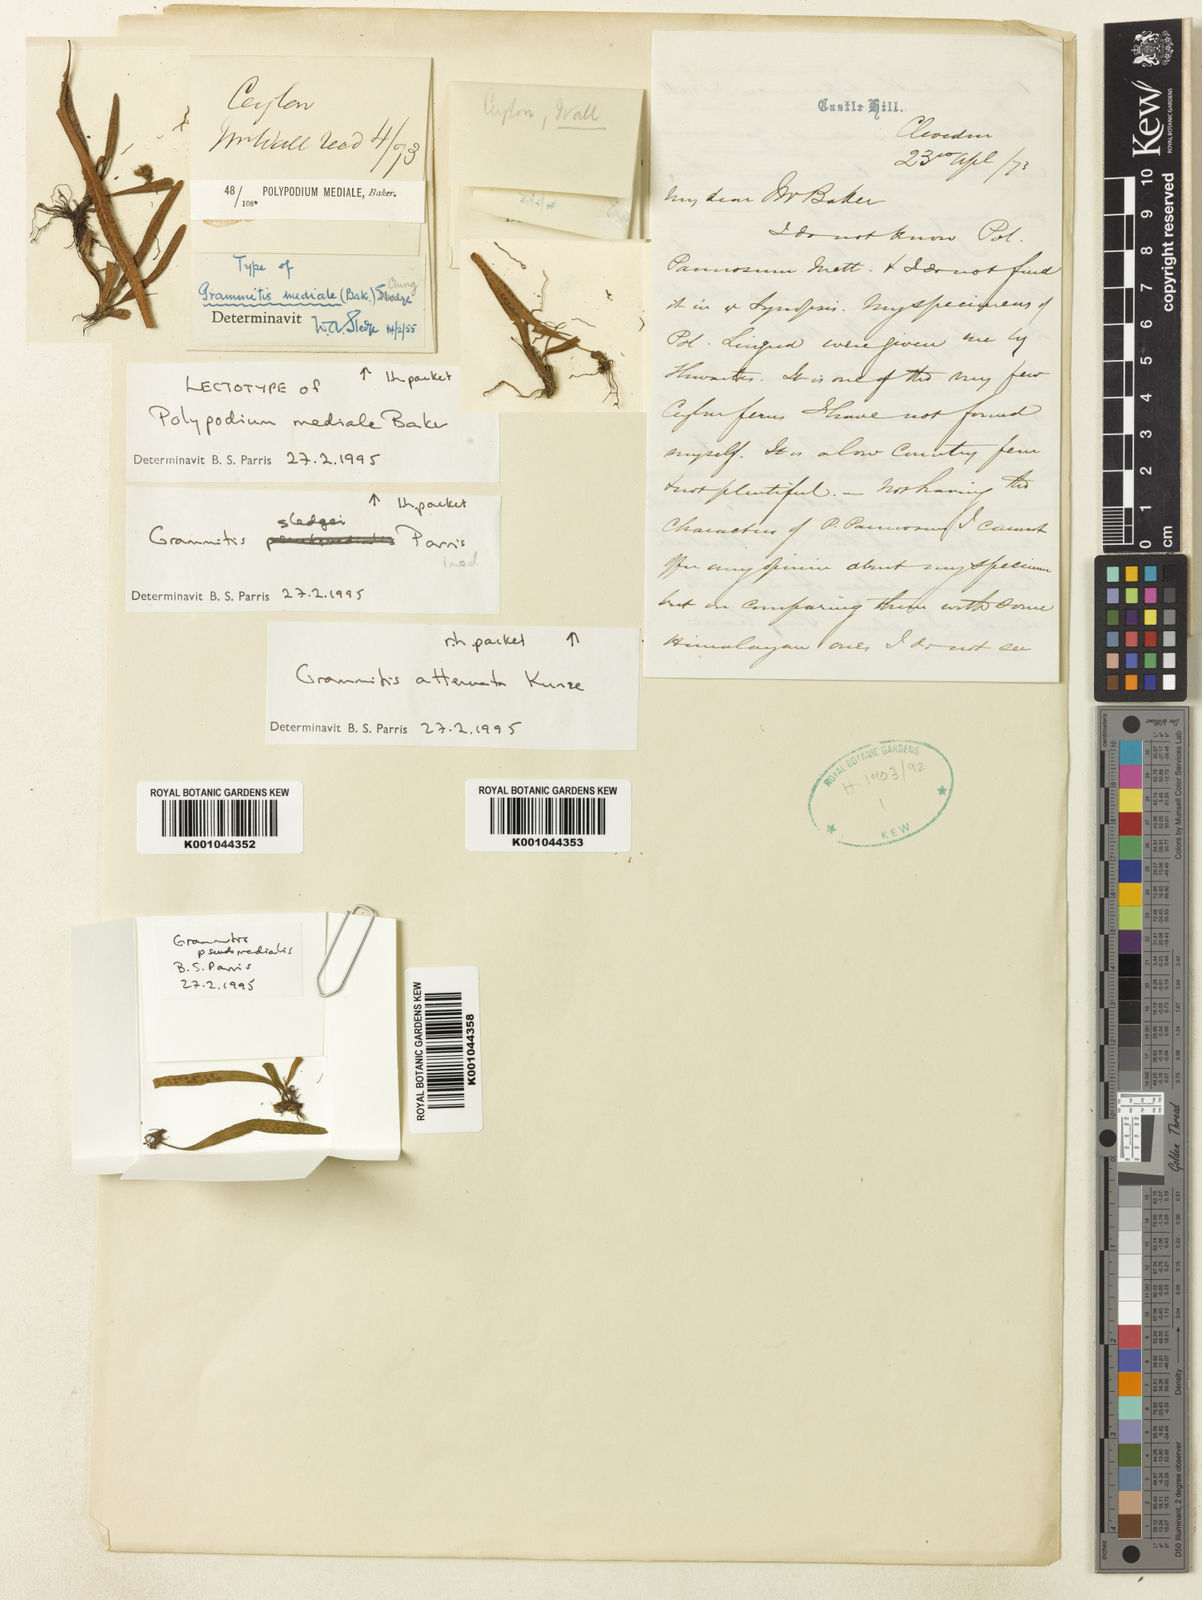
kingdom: Plantae
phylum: Tracheophyta
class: Polypodiopsida
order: Polypodiales
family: Polypodiaceae
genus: Oreogrammitis
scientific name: Oreogrammitis medialis
